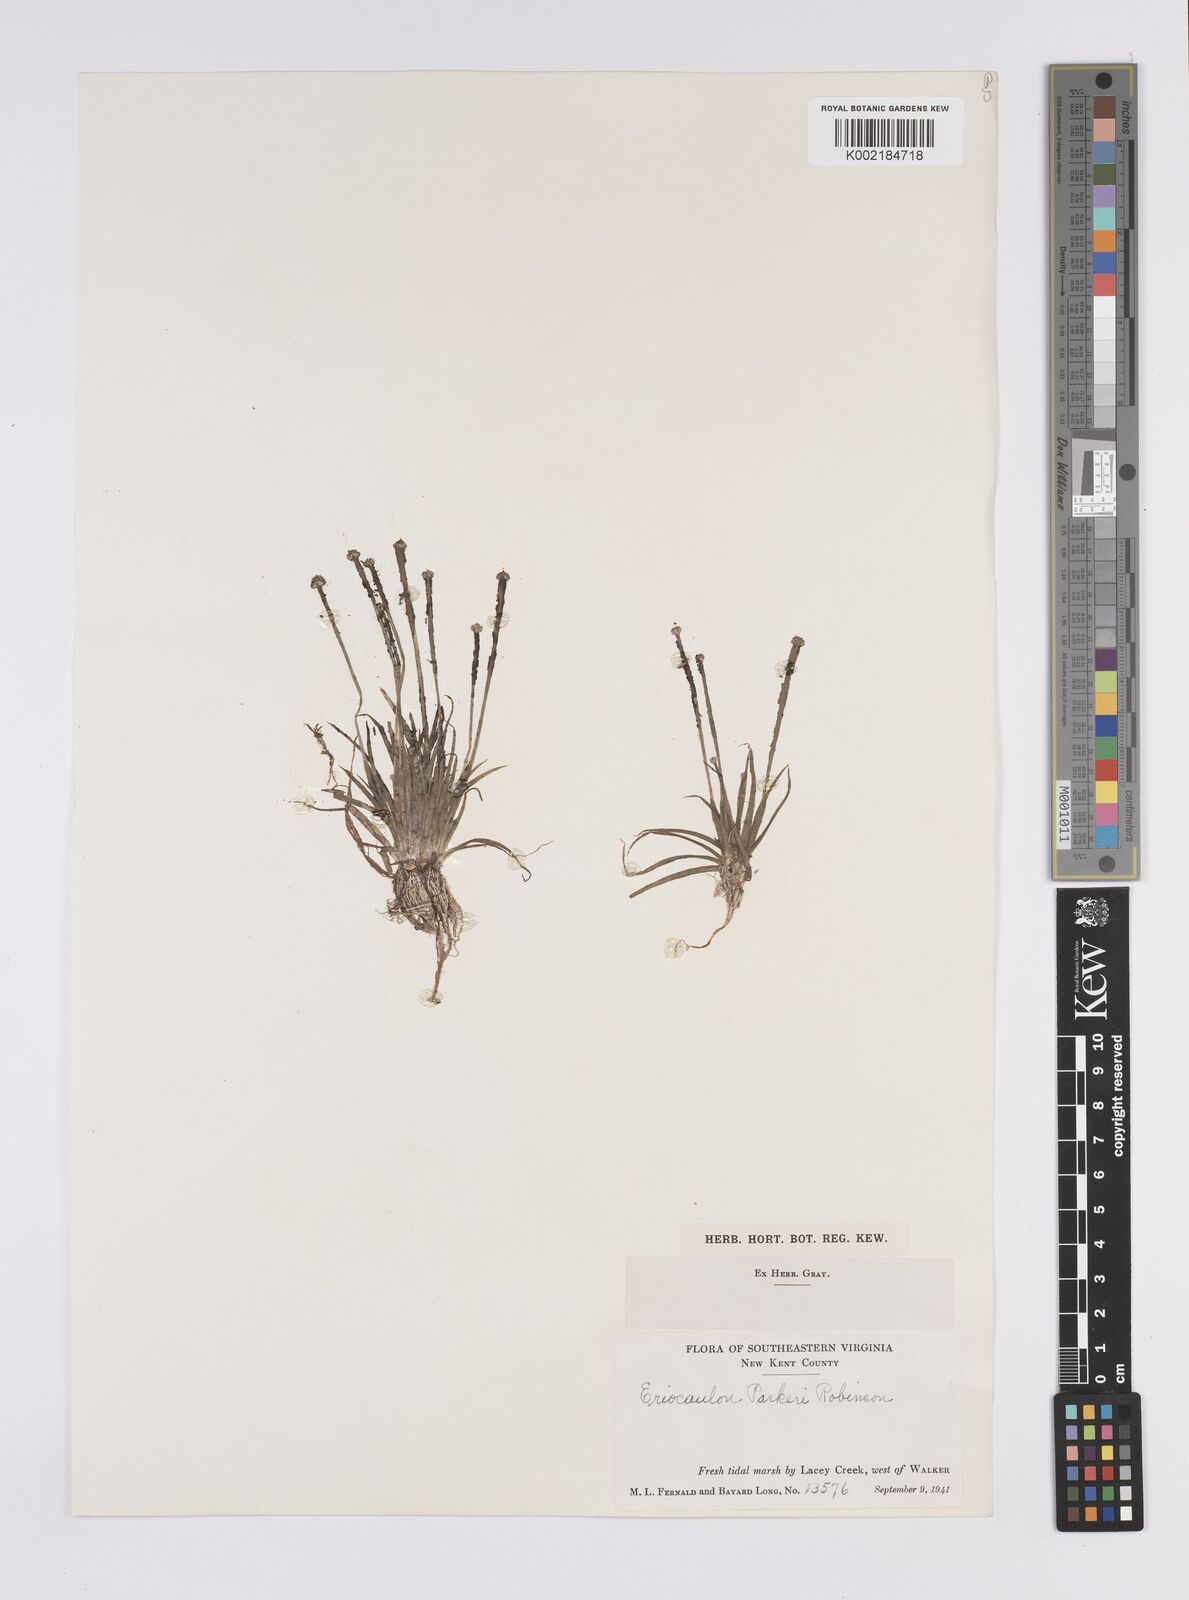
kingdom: Plantae
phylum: Tracheophyta
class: Liliopsida
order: Poales
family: Eriocaulaceae
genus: Eriocaulon
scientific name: Eriocaulon parkeri
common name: Parker's pipewort
